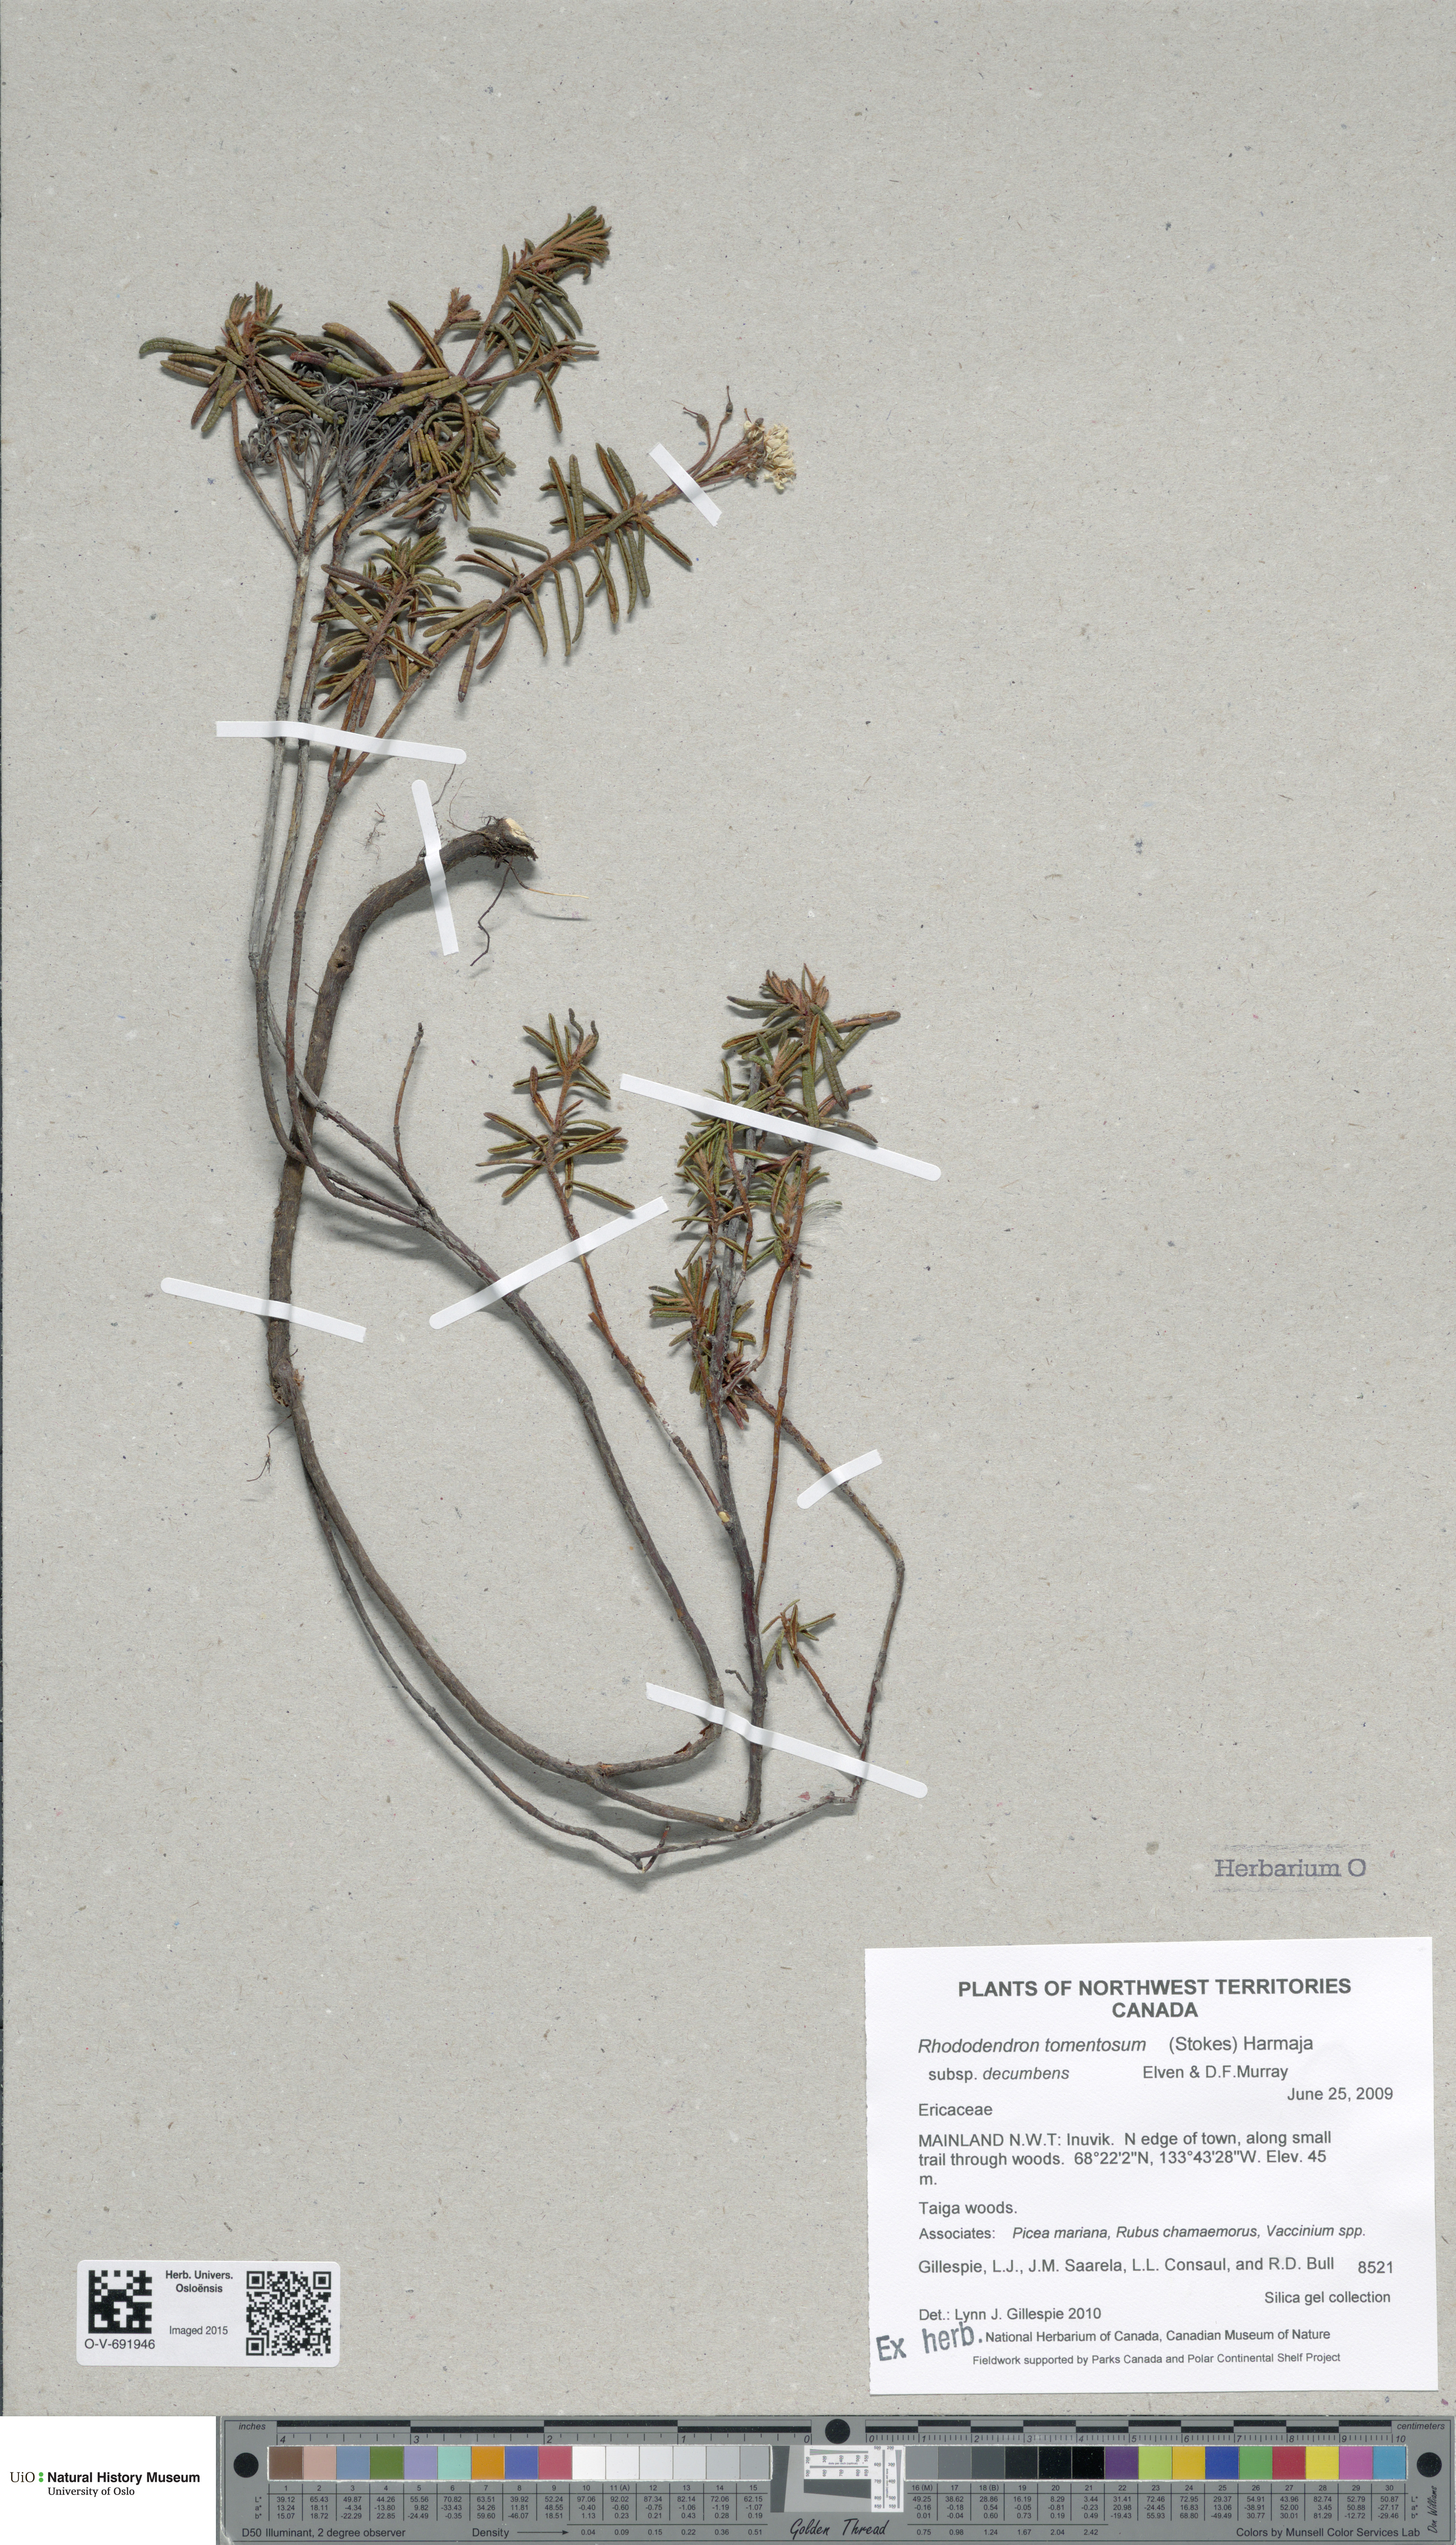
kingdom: Plantae
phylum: Tracheophyta
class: Magnoliopsida
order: Ericales
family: Ericaceae
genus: Rhododendron
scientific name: Rhododendron tomentosum
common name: Marsh labrador tea
